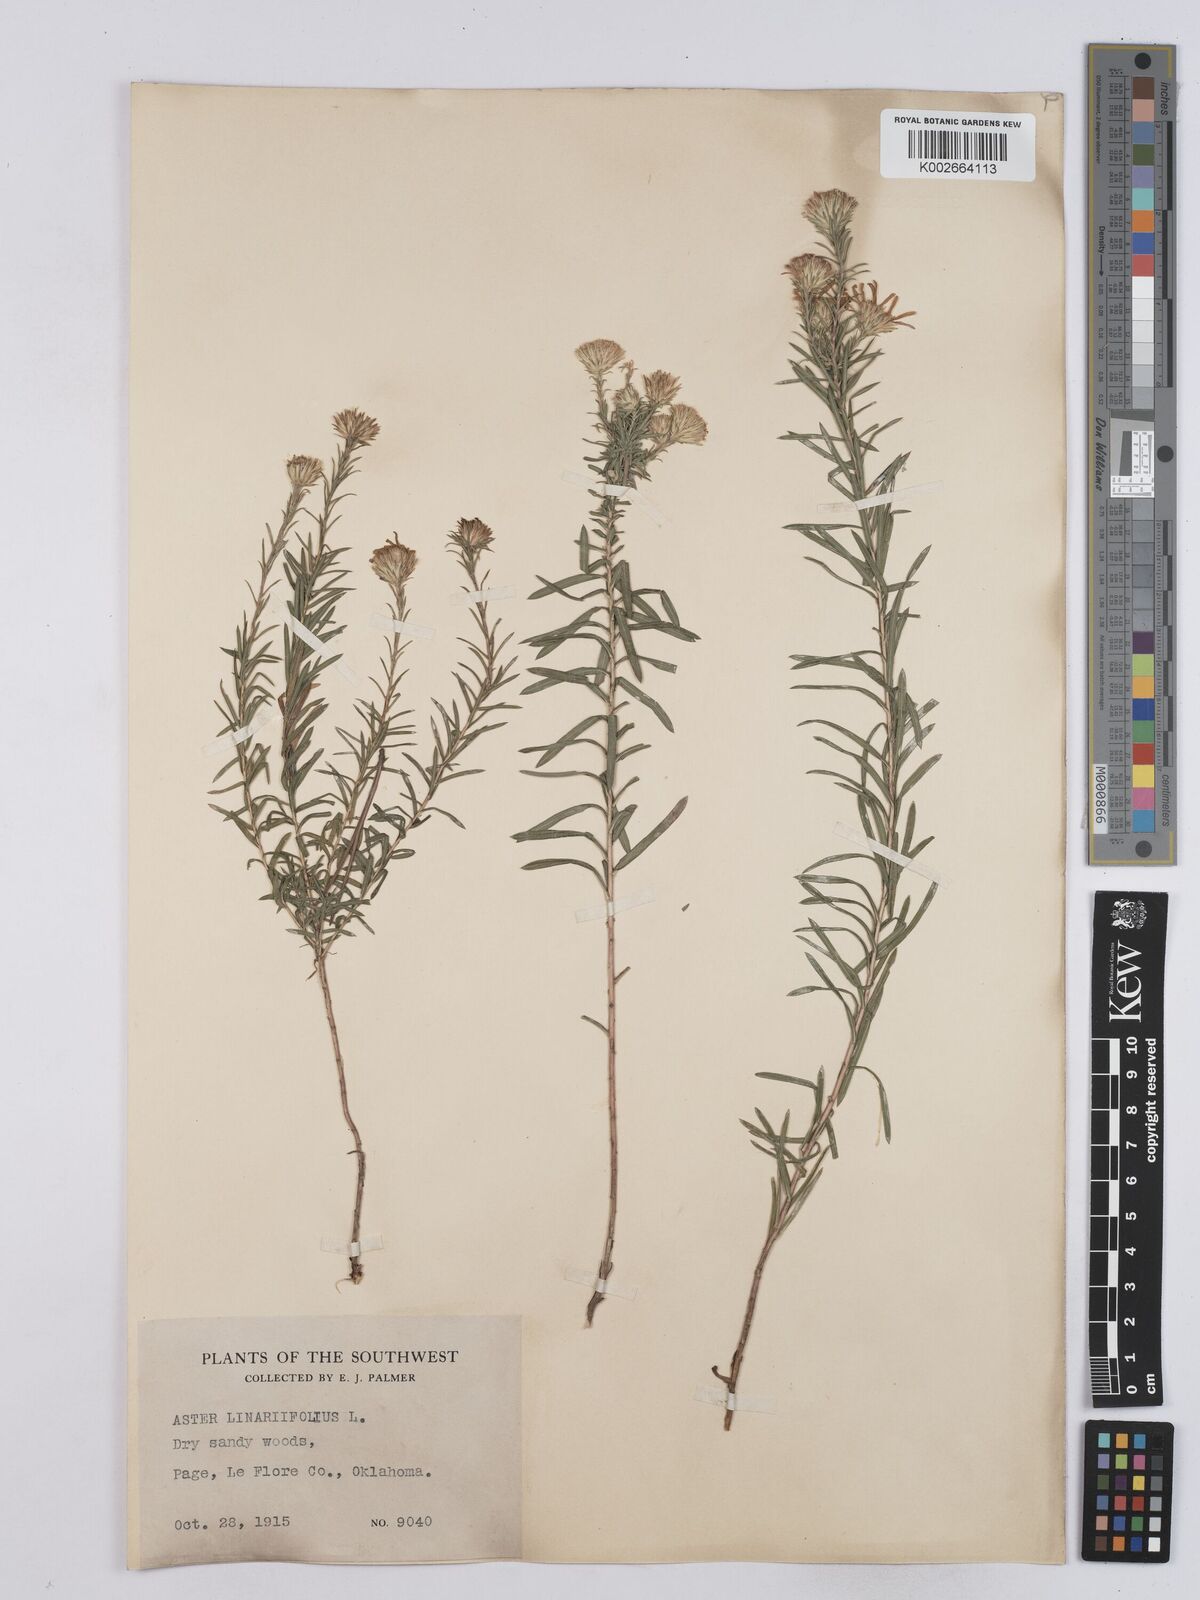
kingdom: Plantae
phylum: Tracheophyta
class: Magnoliopsida
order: Asterales
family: Asteraceae
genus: Ionactis
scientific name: Ionactis linariifolia
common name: Flax-leaf aster
